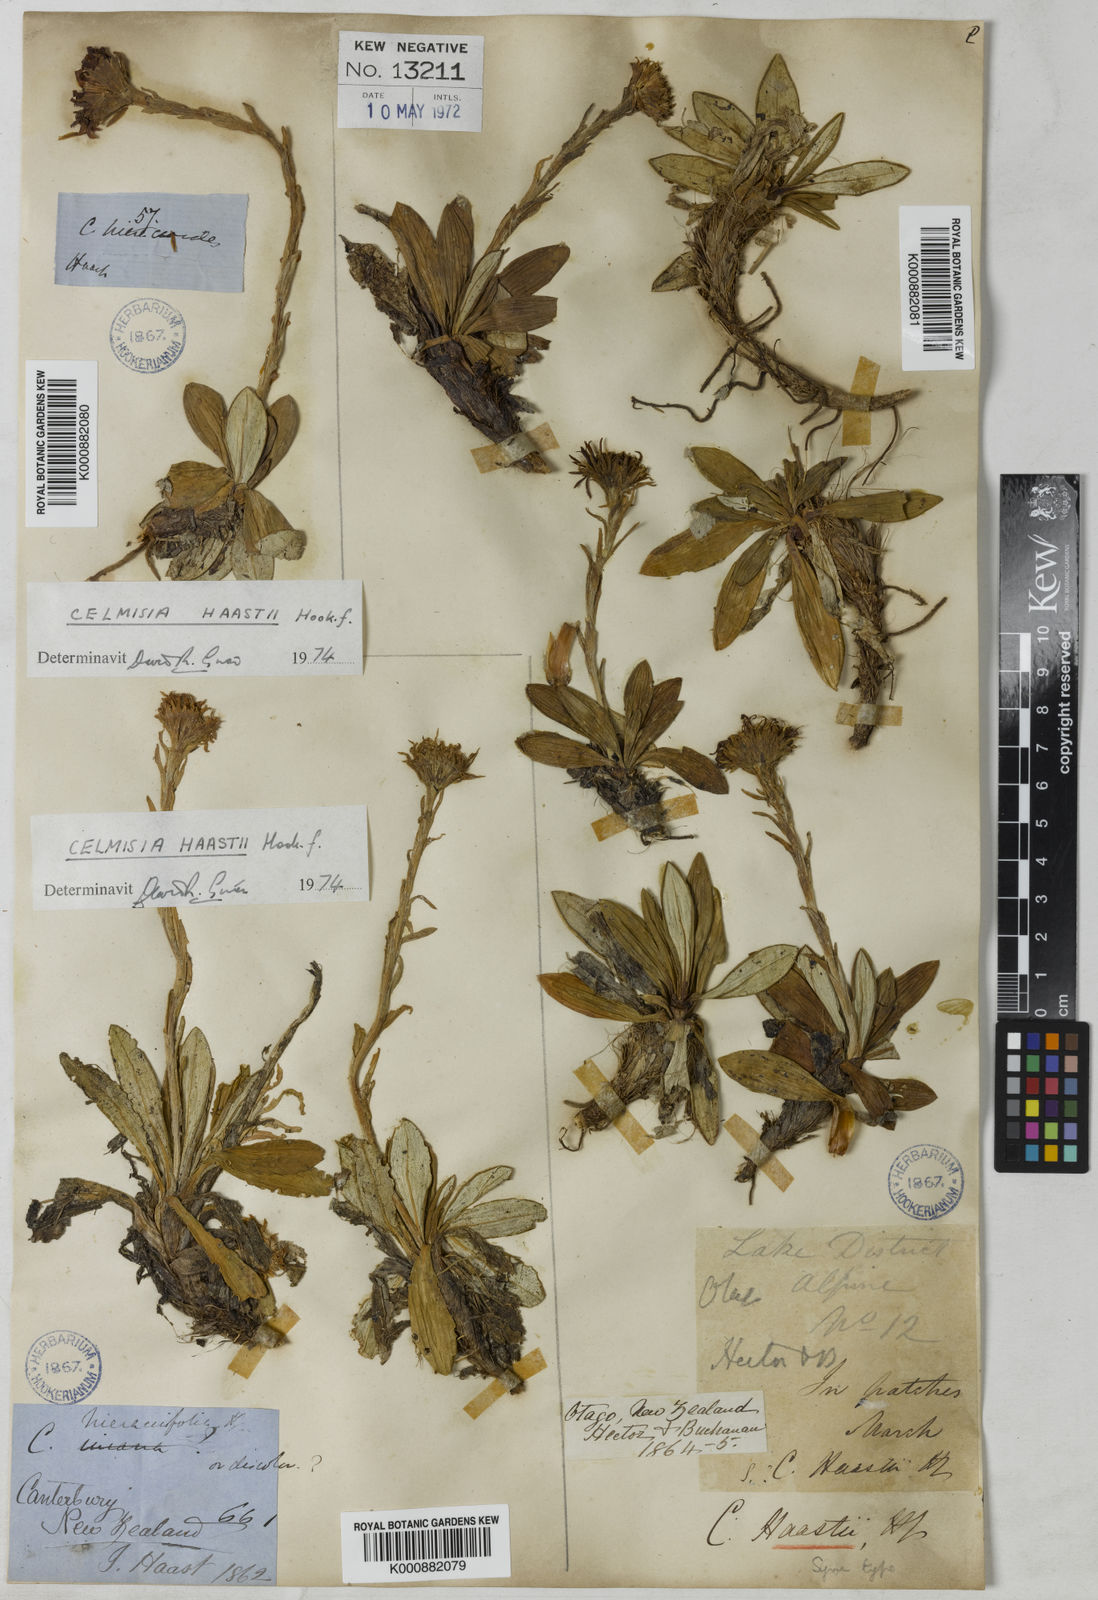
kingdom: Plantae
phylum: Tracheophyta
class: Magnoliopsida
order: Asterales
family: Asteraceae
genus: Celmisia
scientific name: Celmisia haastii
